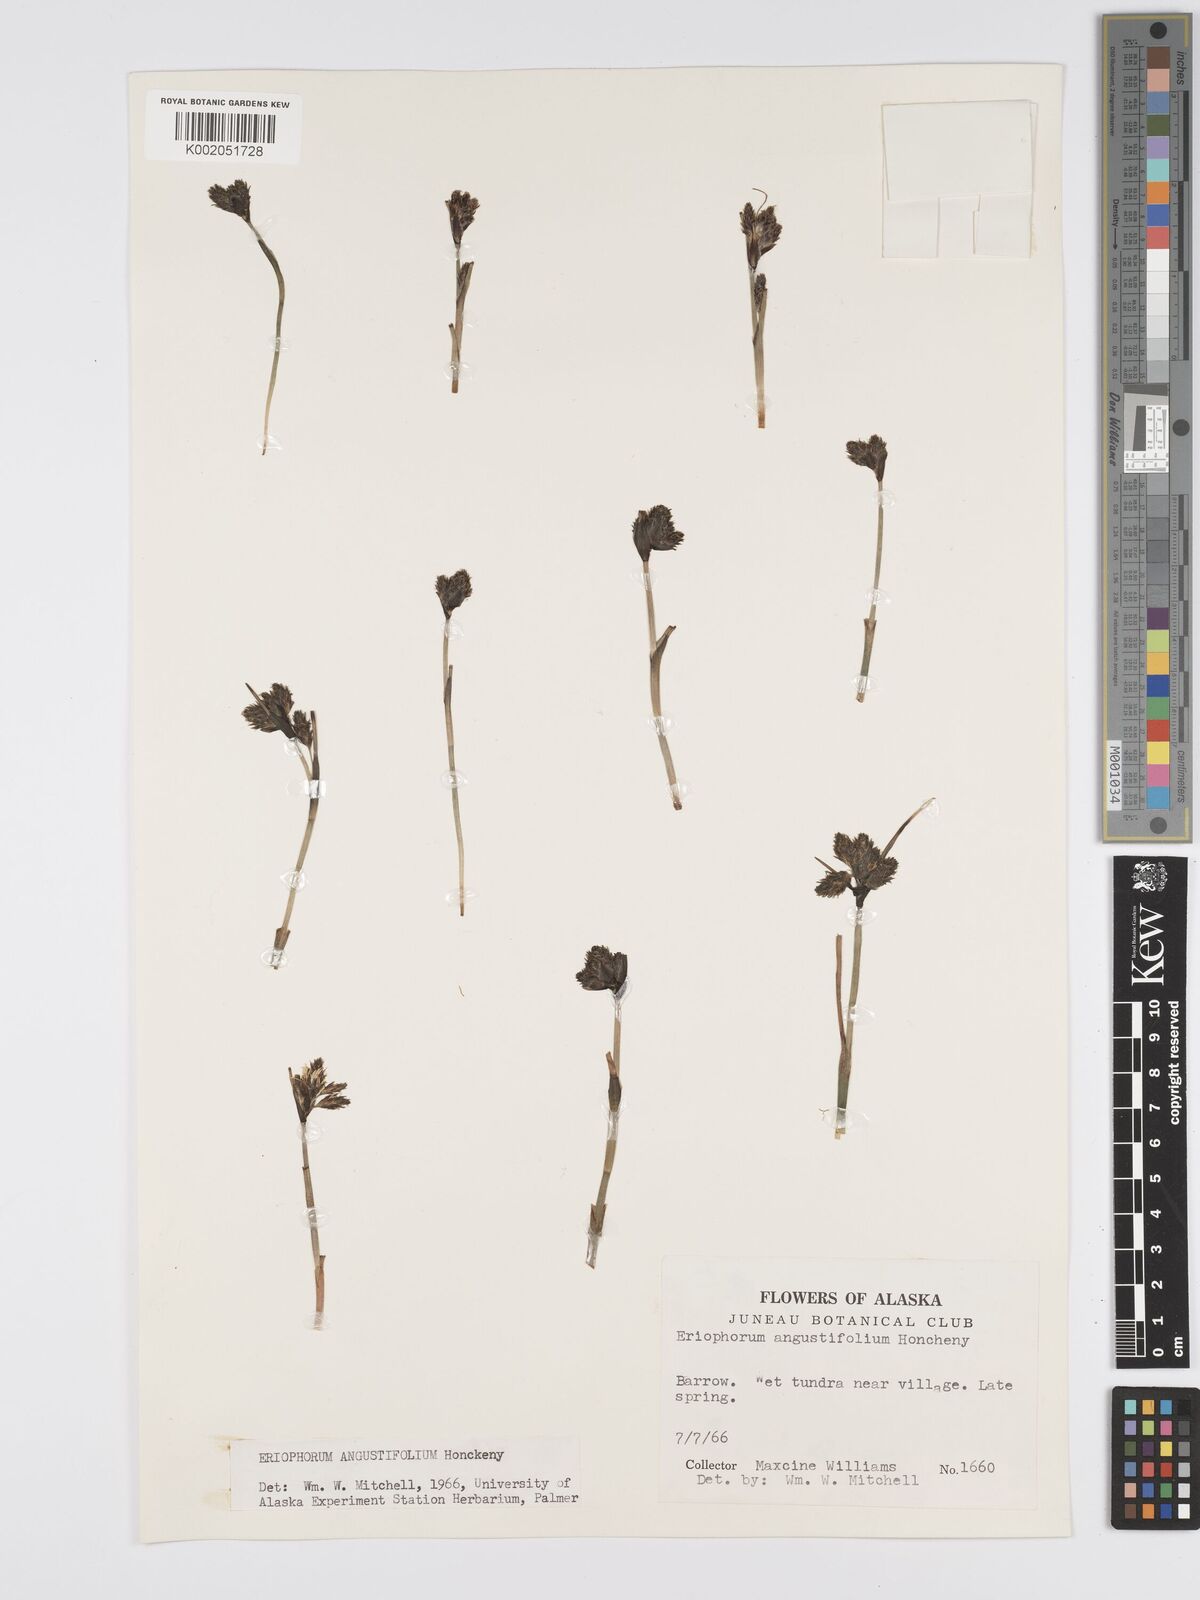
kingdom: Plantae
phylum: Tracheophyta
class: Liliopsida
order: Poales
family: Cyperaceae
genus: Eriophorum
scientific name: Eriophorum angustifolium
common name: Common cottongrass
